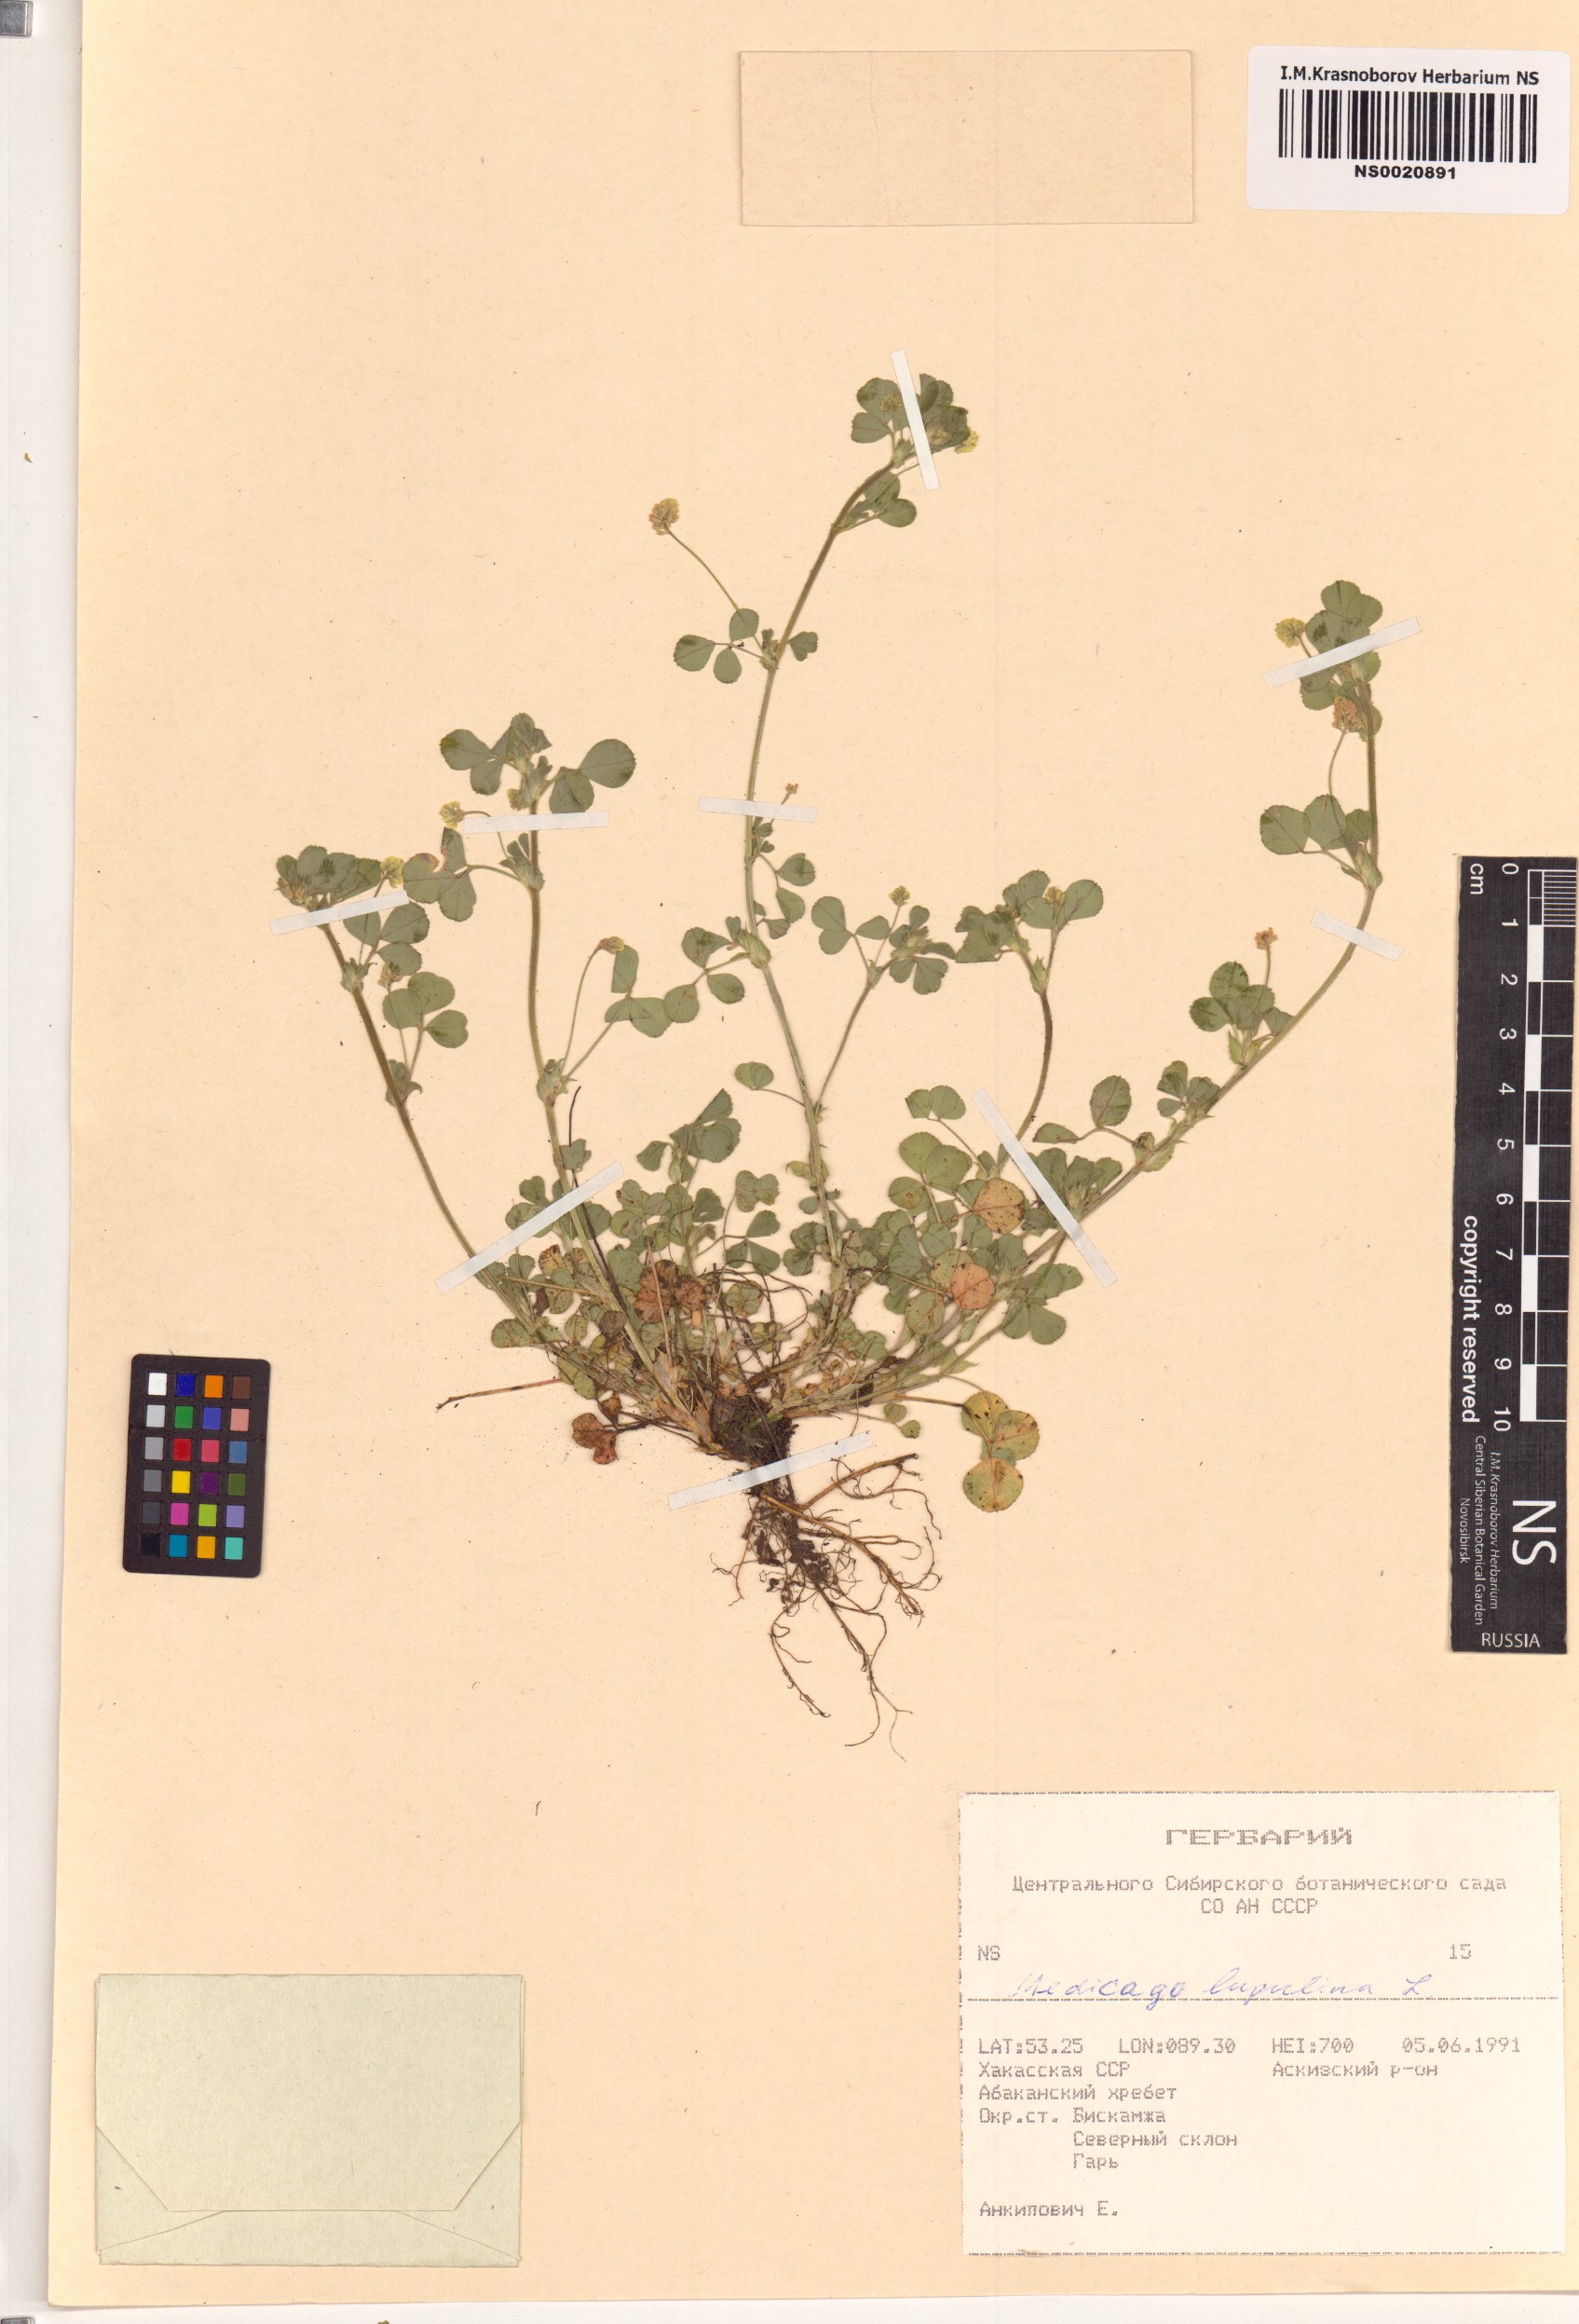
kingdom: Plantae
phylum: Tracheophyta
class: Magnoliopsida
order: Fabales
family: Fabaceae
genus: Medicago
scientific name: Medicago lupulina
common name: Black medick
